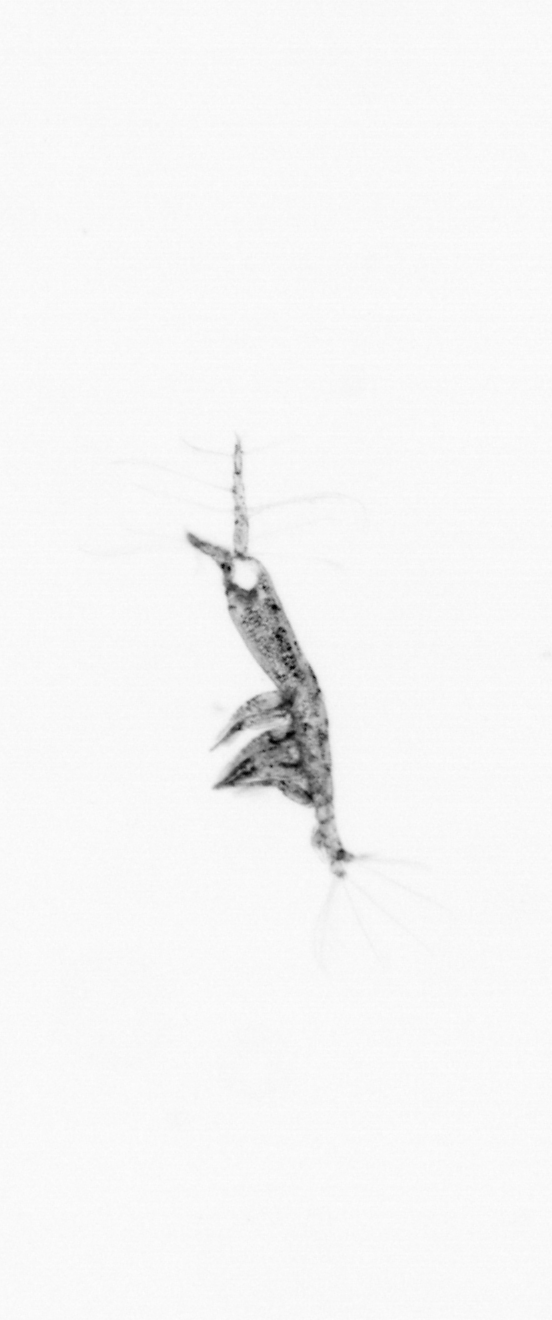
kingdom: Animalia
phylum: Arthropoda
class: Copepoda
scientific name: Copepoda
